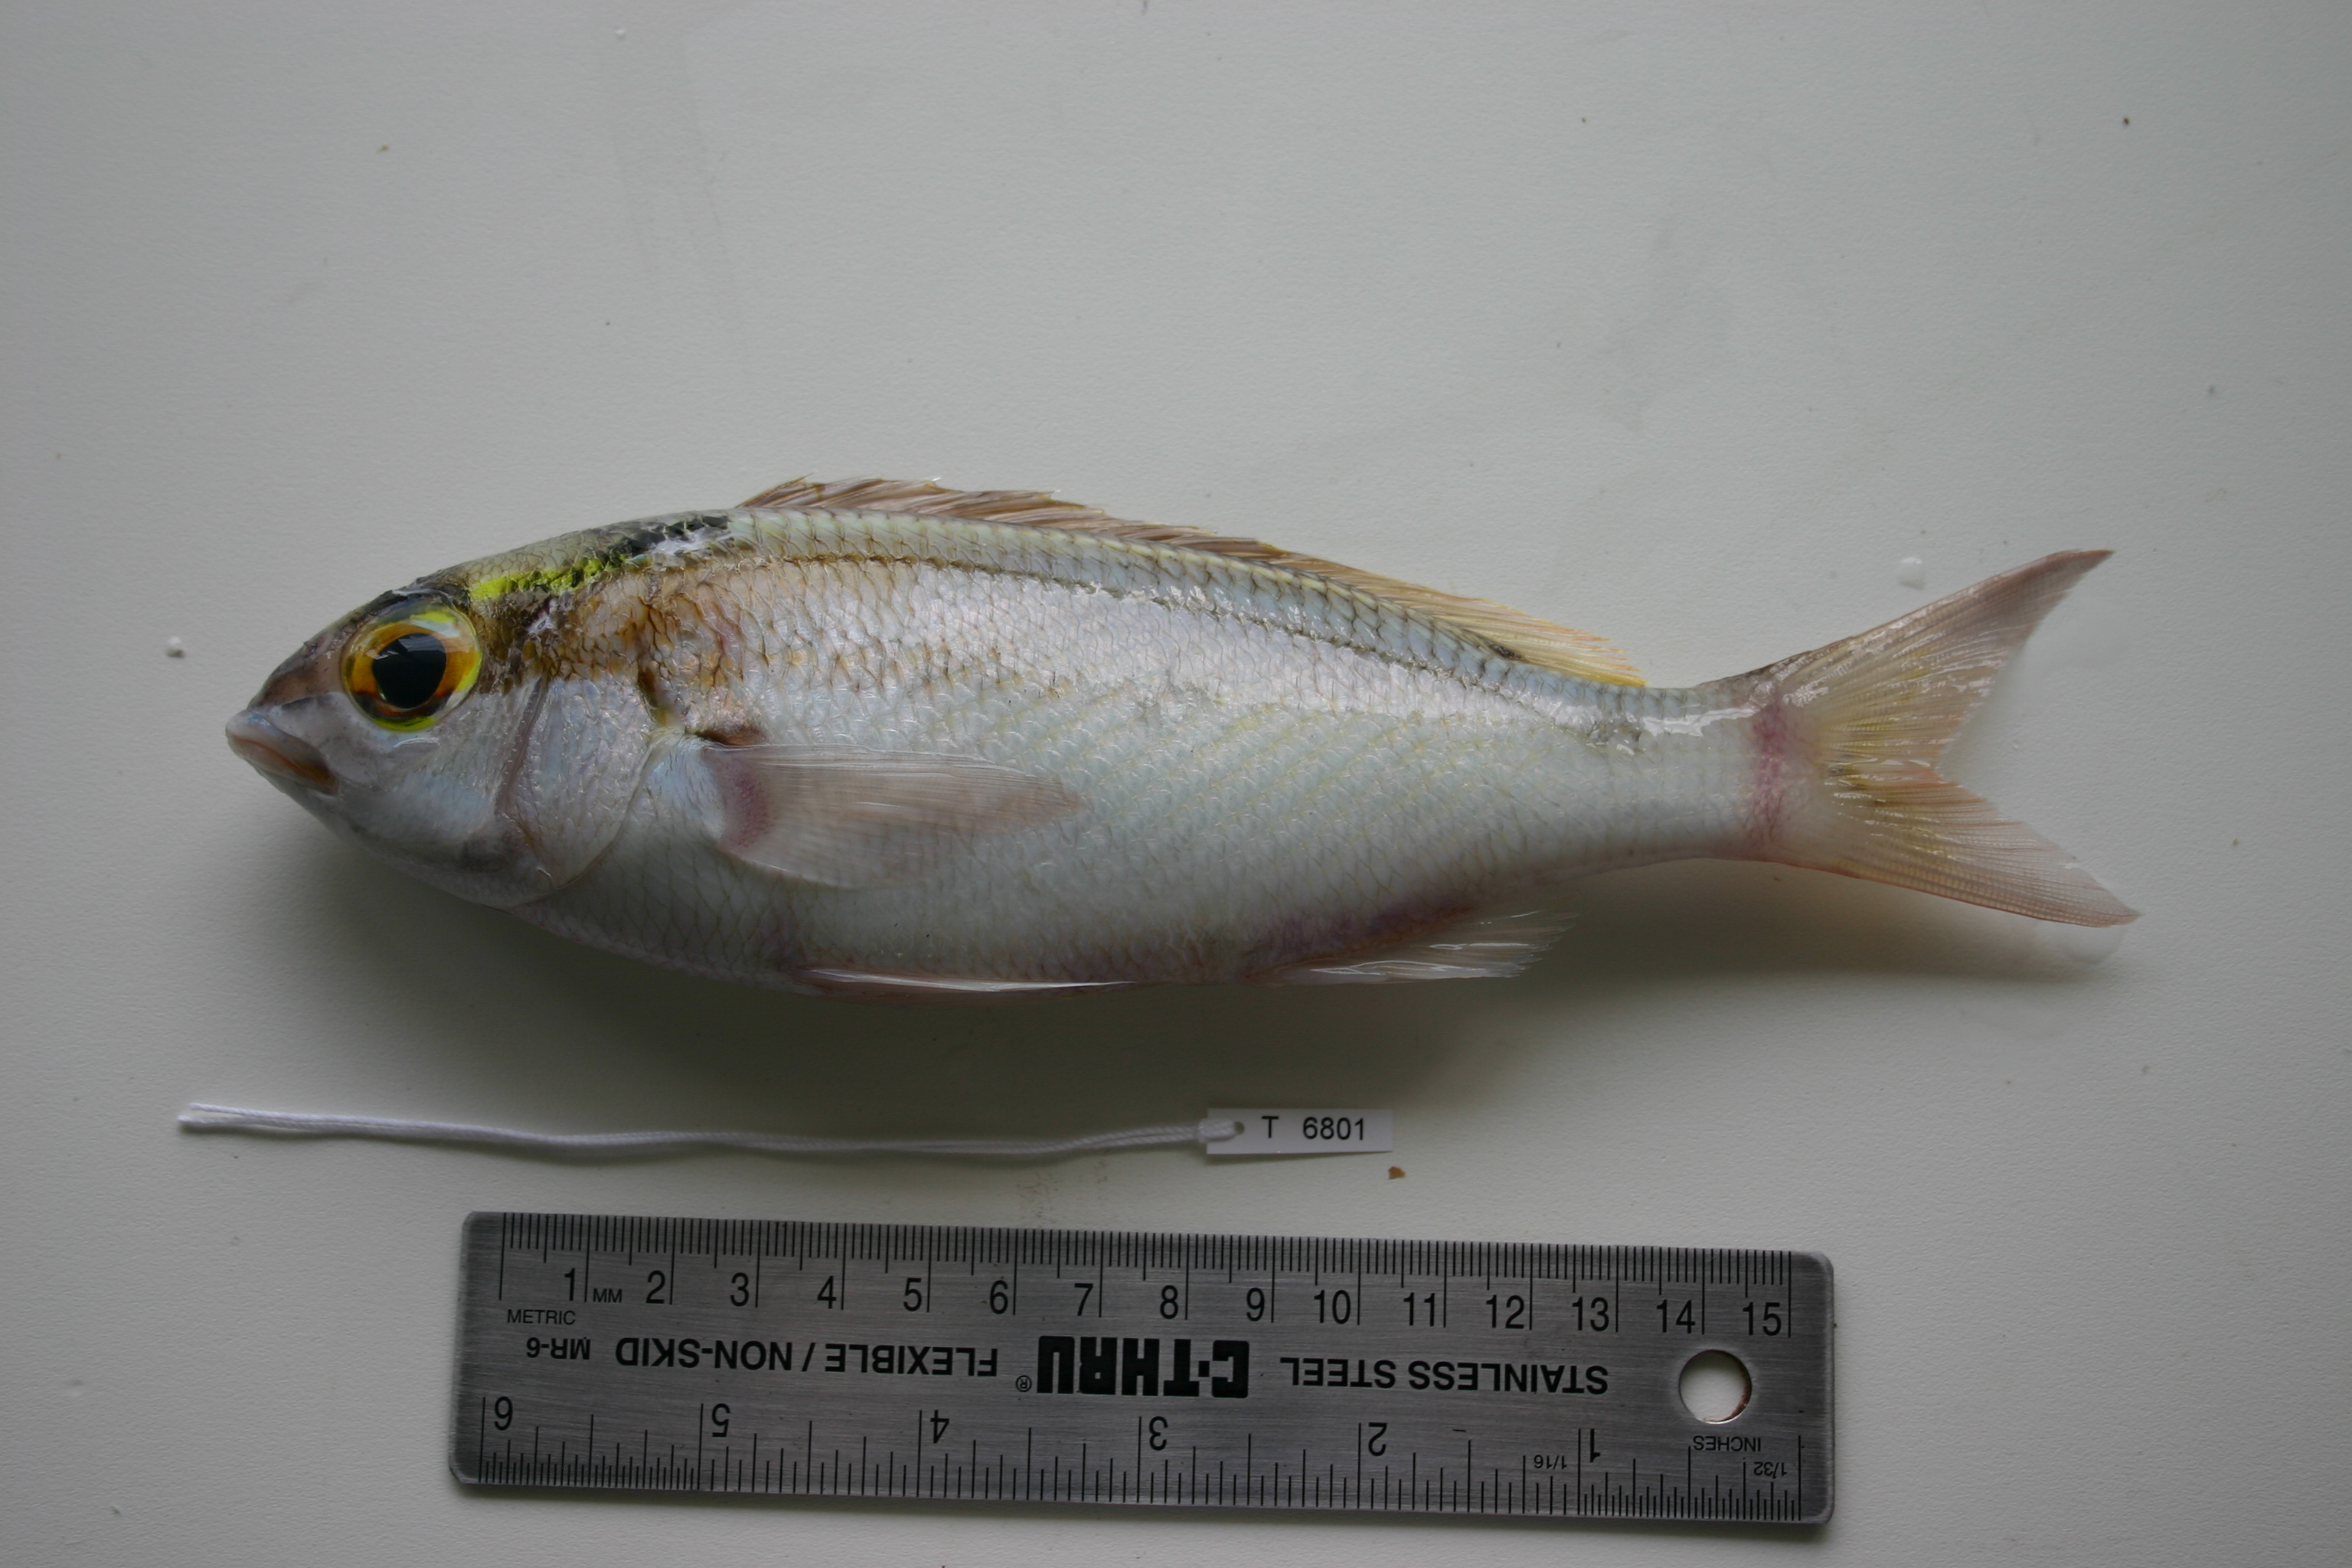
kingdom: Animalia
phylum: Chordata
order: Perciformes
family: Nemipteridae
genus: Scolopsis
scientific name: Scolopsis frenata
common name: Bridled monocle bream
